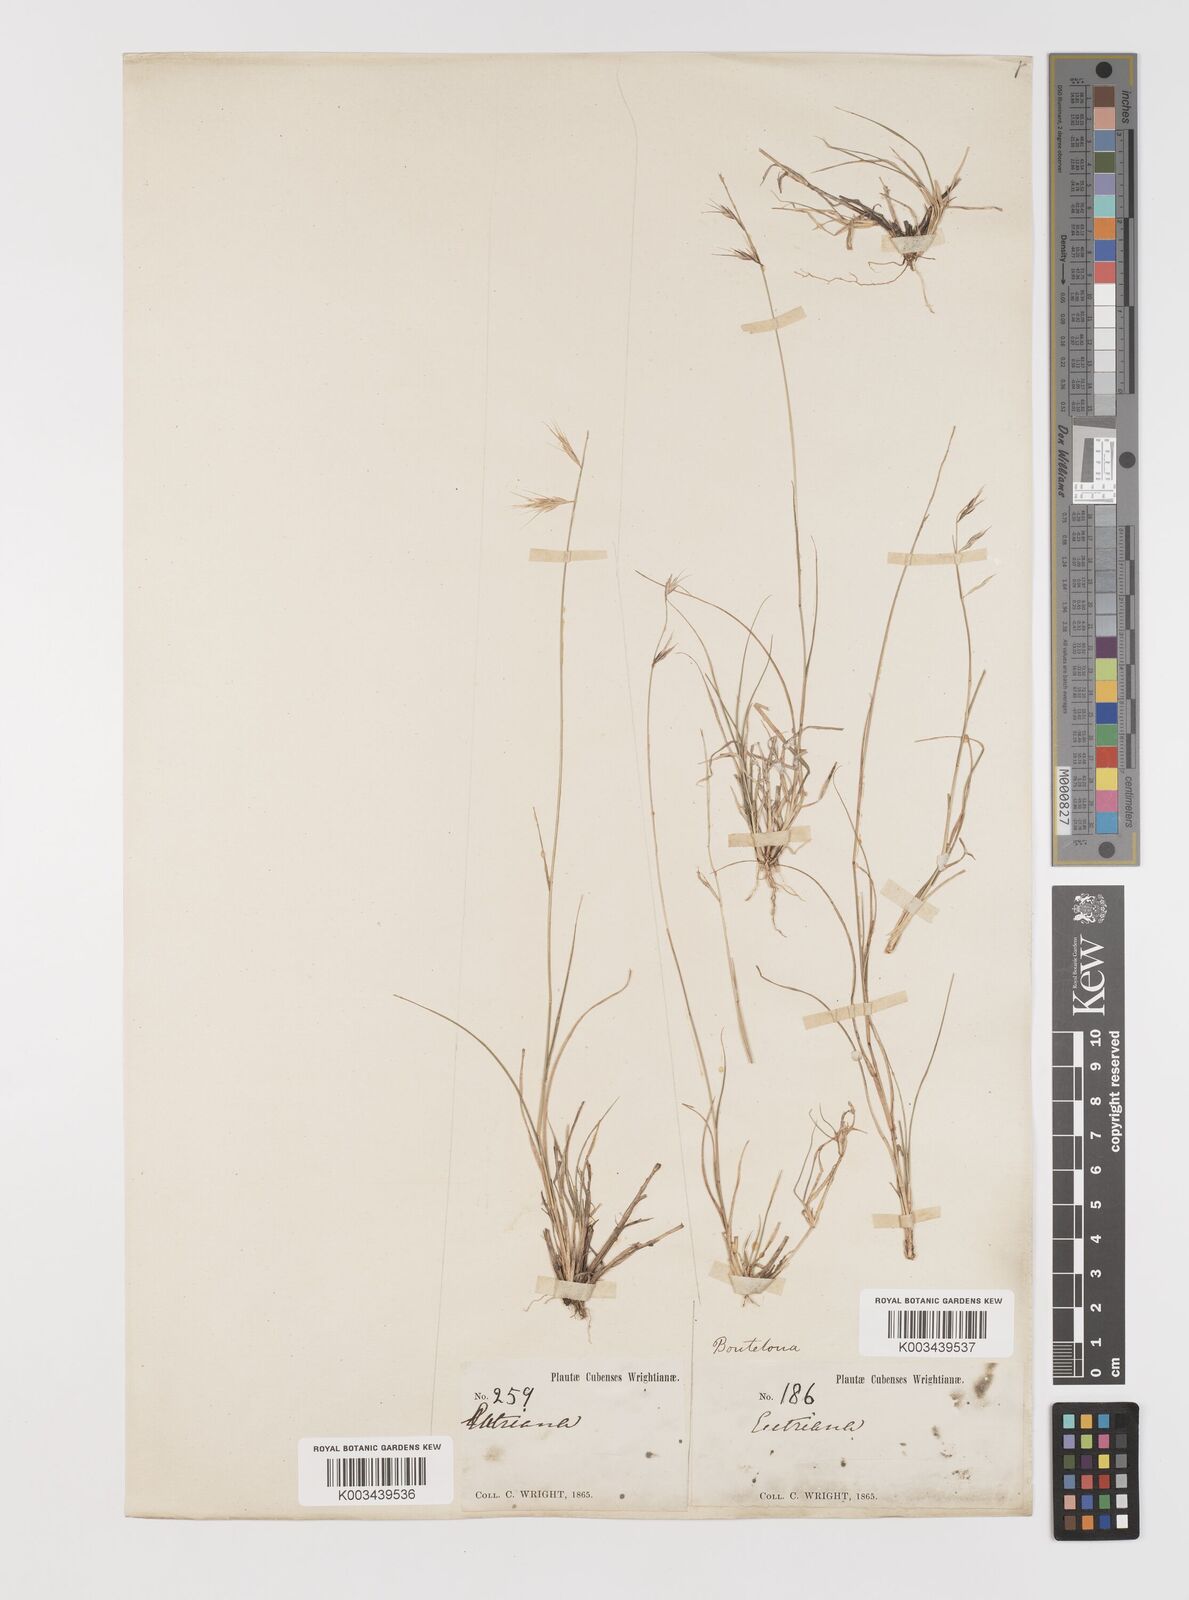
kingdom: Plantae
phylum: Tracheophyta
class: Liliopsida
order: Poales
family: Poaceae
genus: Bouteloua
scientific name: Bouteloua repens
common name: Slender grama
